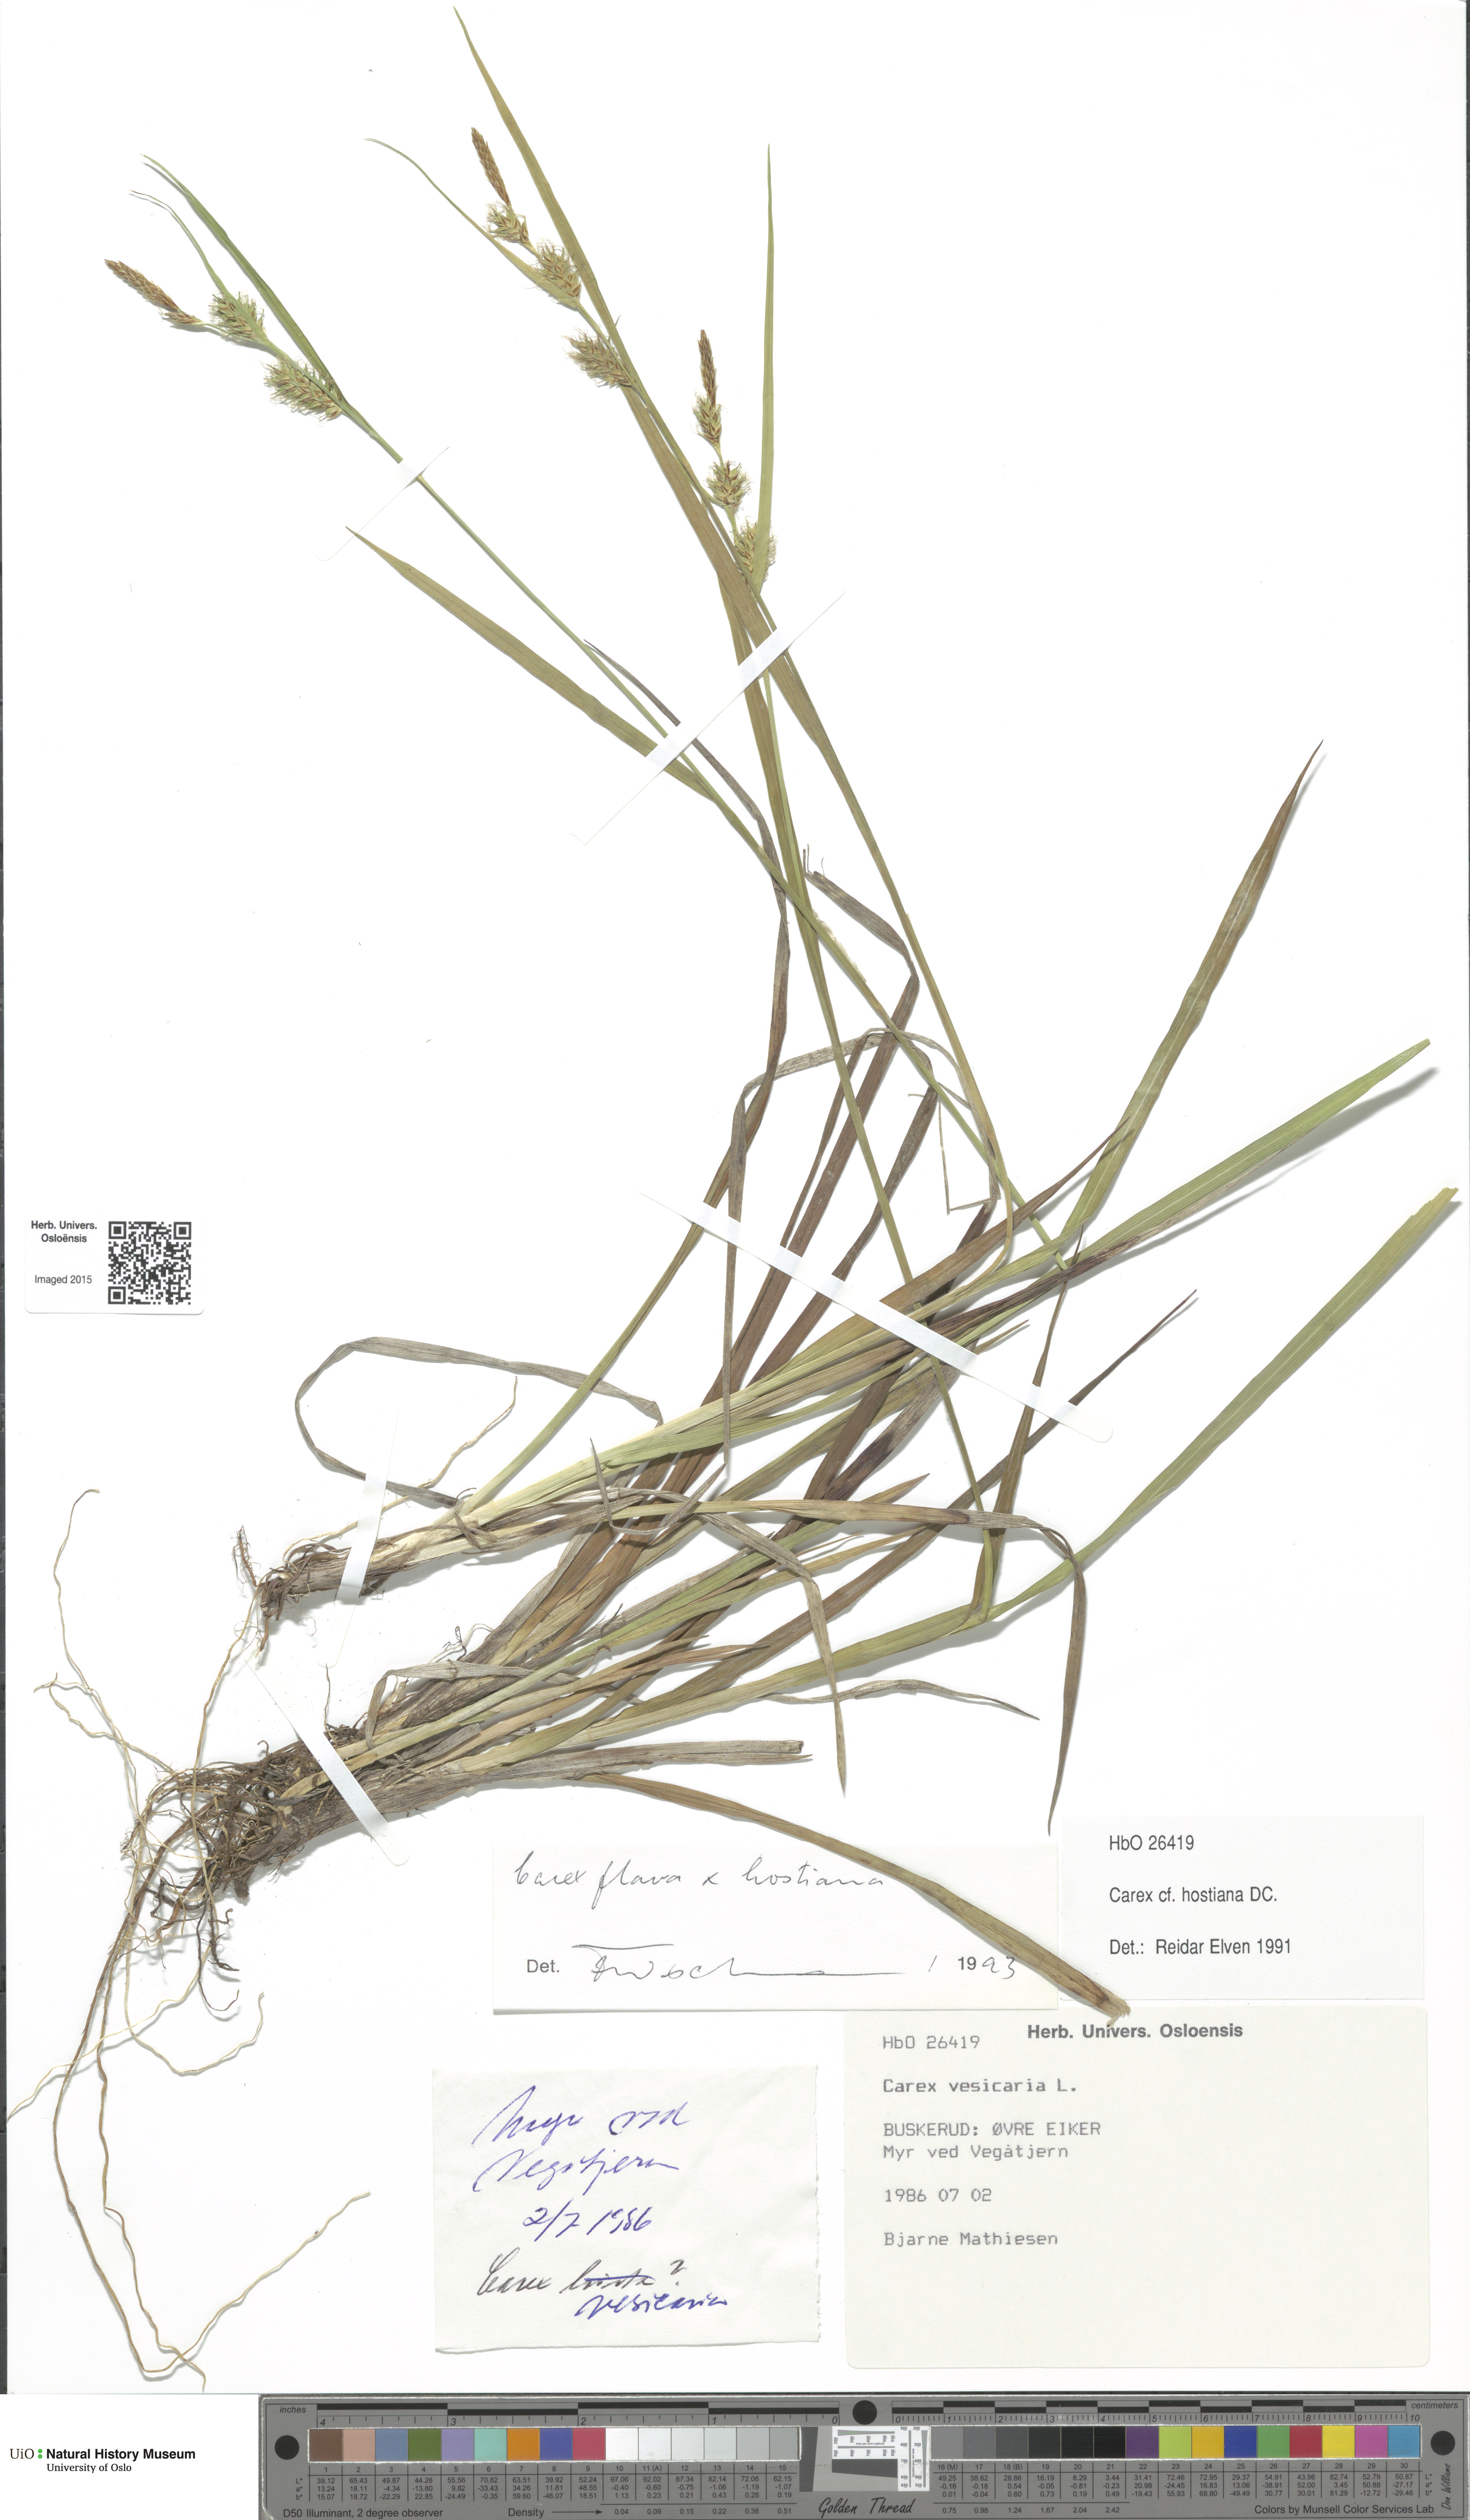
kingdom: Plantae
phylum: Tracheophyta
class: Liliopsida
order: Poales
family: Cyperaceae
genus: Carex
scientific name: Carex
